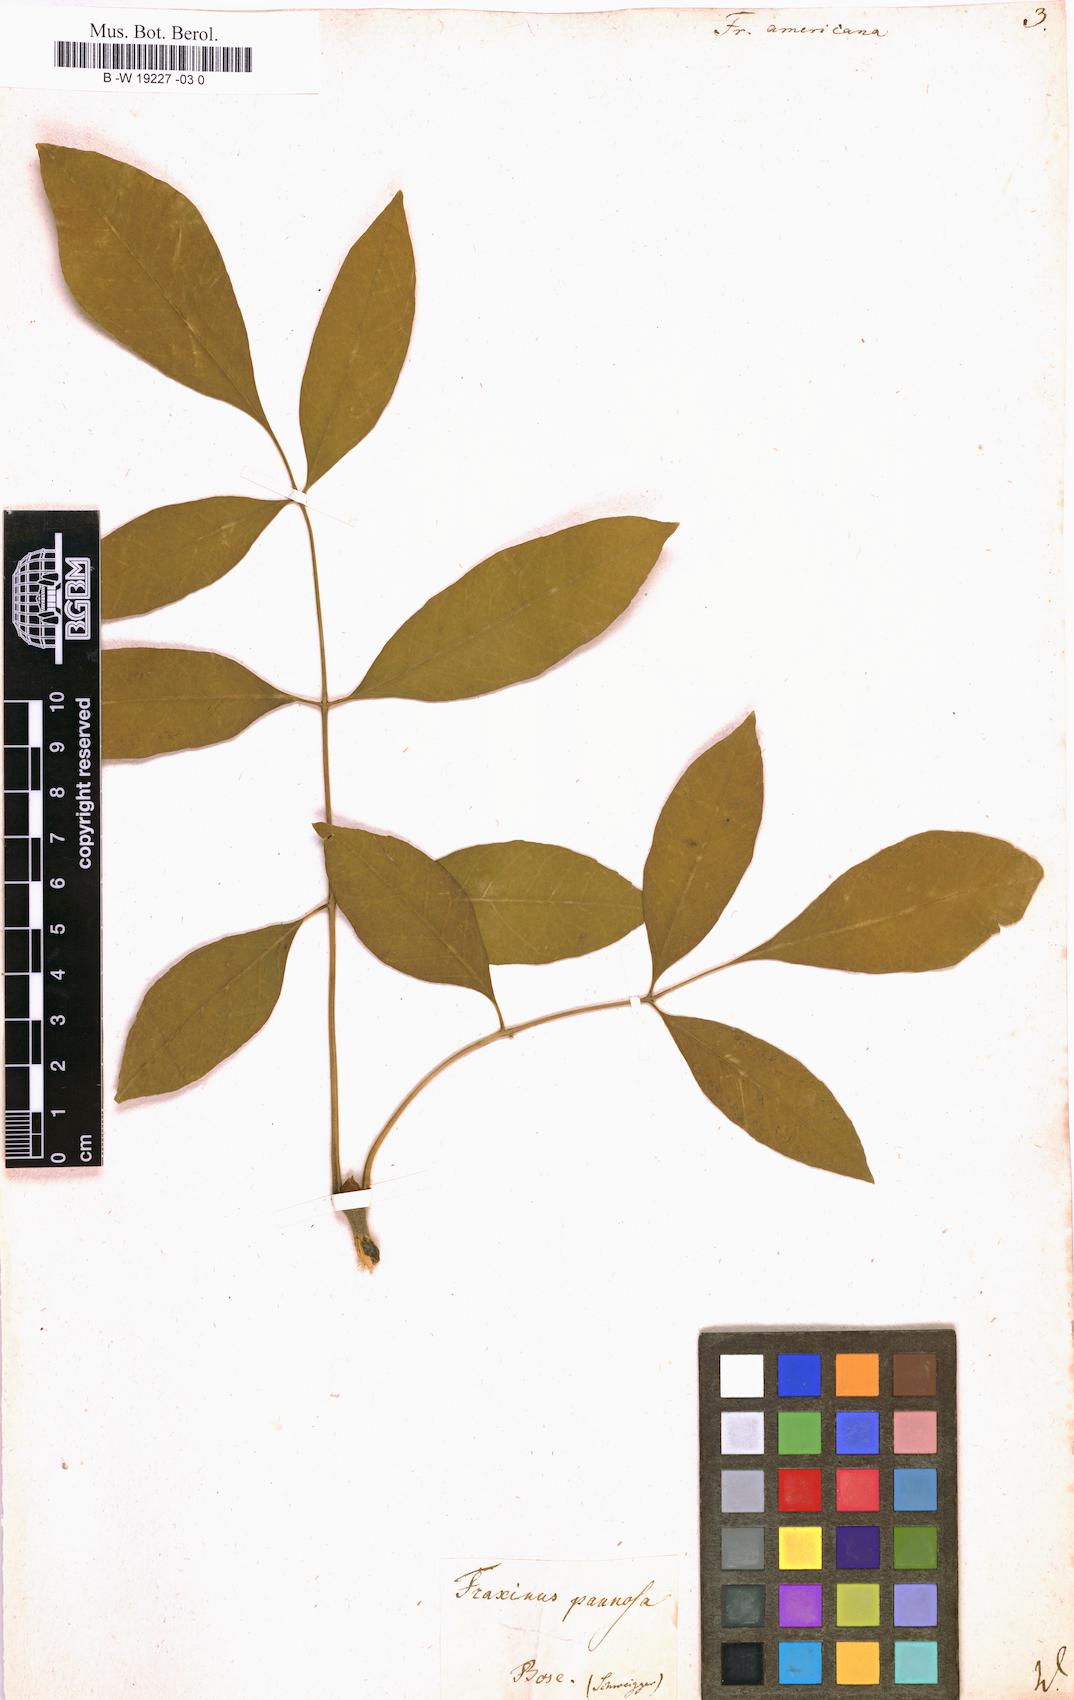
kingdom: Plantae
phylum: Tracheophyta
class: Magnoliopsida
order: Lamiales
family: Oleaceae
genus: Fraxinus
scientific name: Fraxinus americana
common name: White ash
